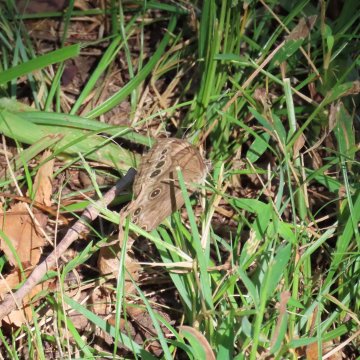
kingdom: Animalia
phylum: Arthropoda
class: Insecta
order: Lepidoptera
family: Nymphalidae
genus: Lethe
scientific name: Lethe anthedon
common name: Northern Pearly-Eye
